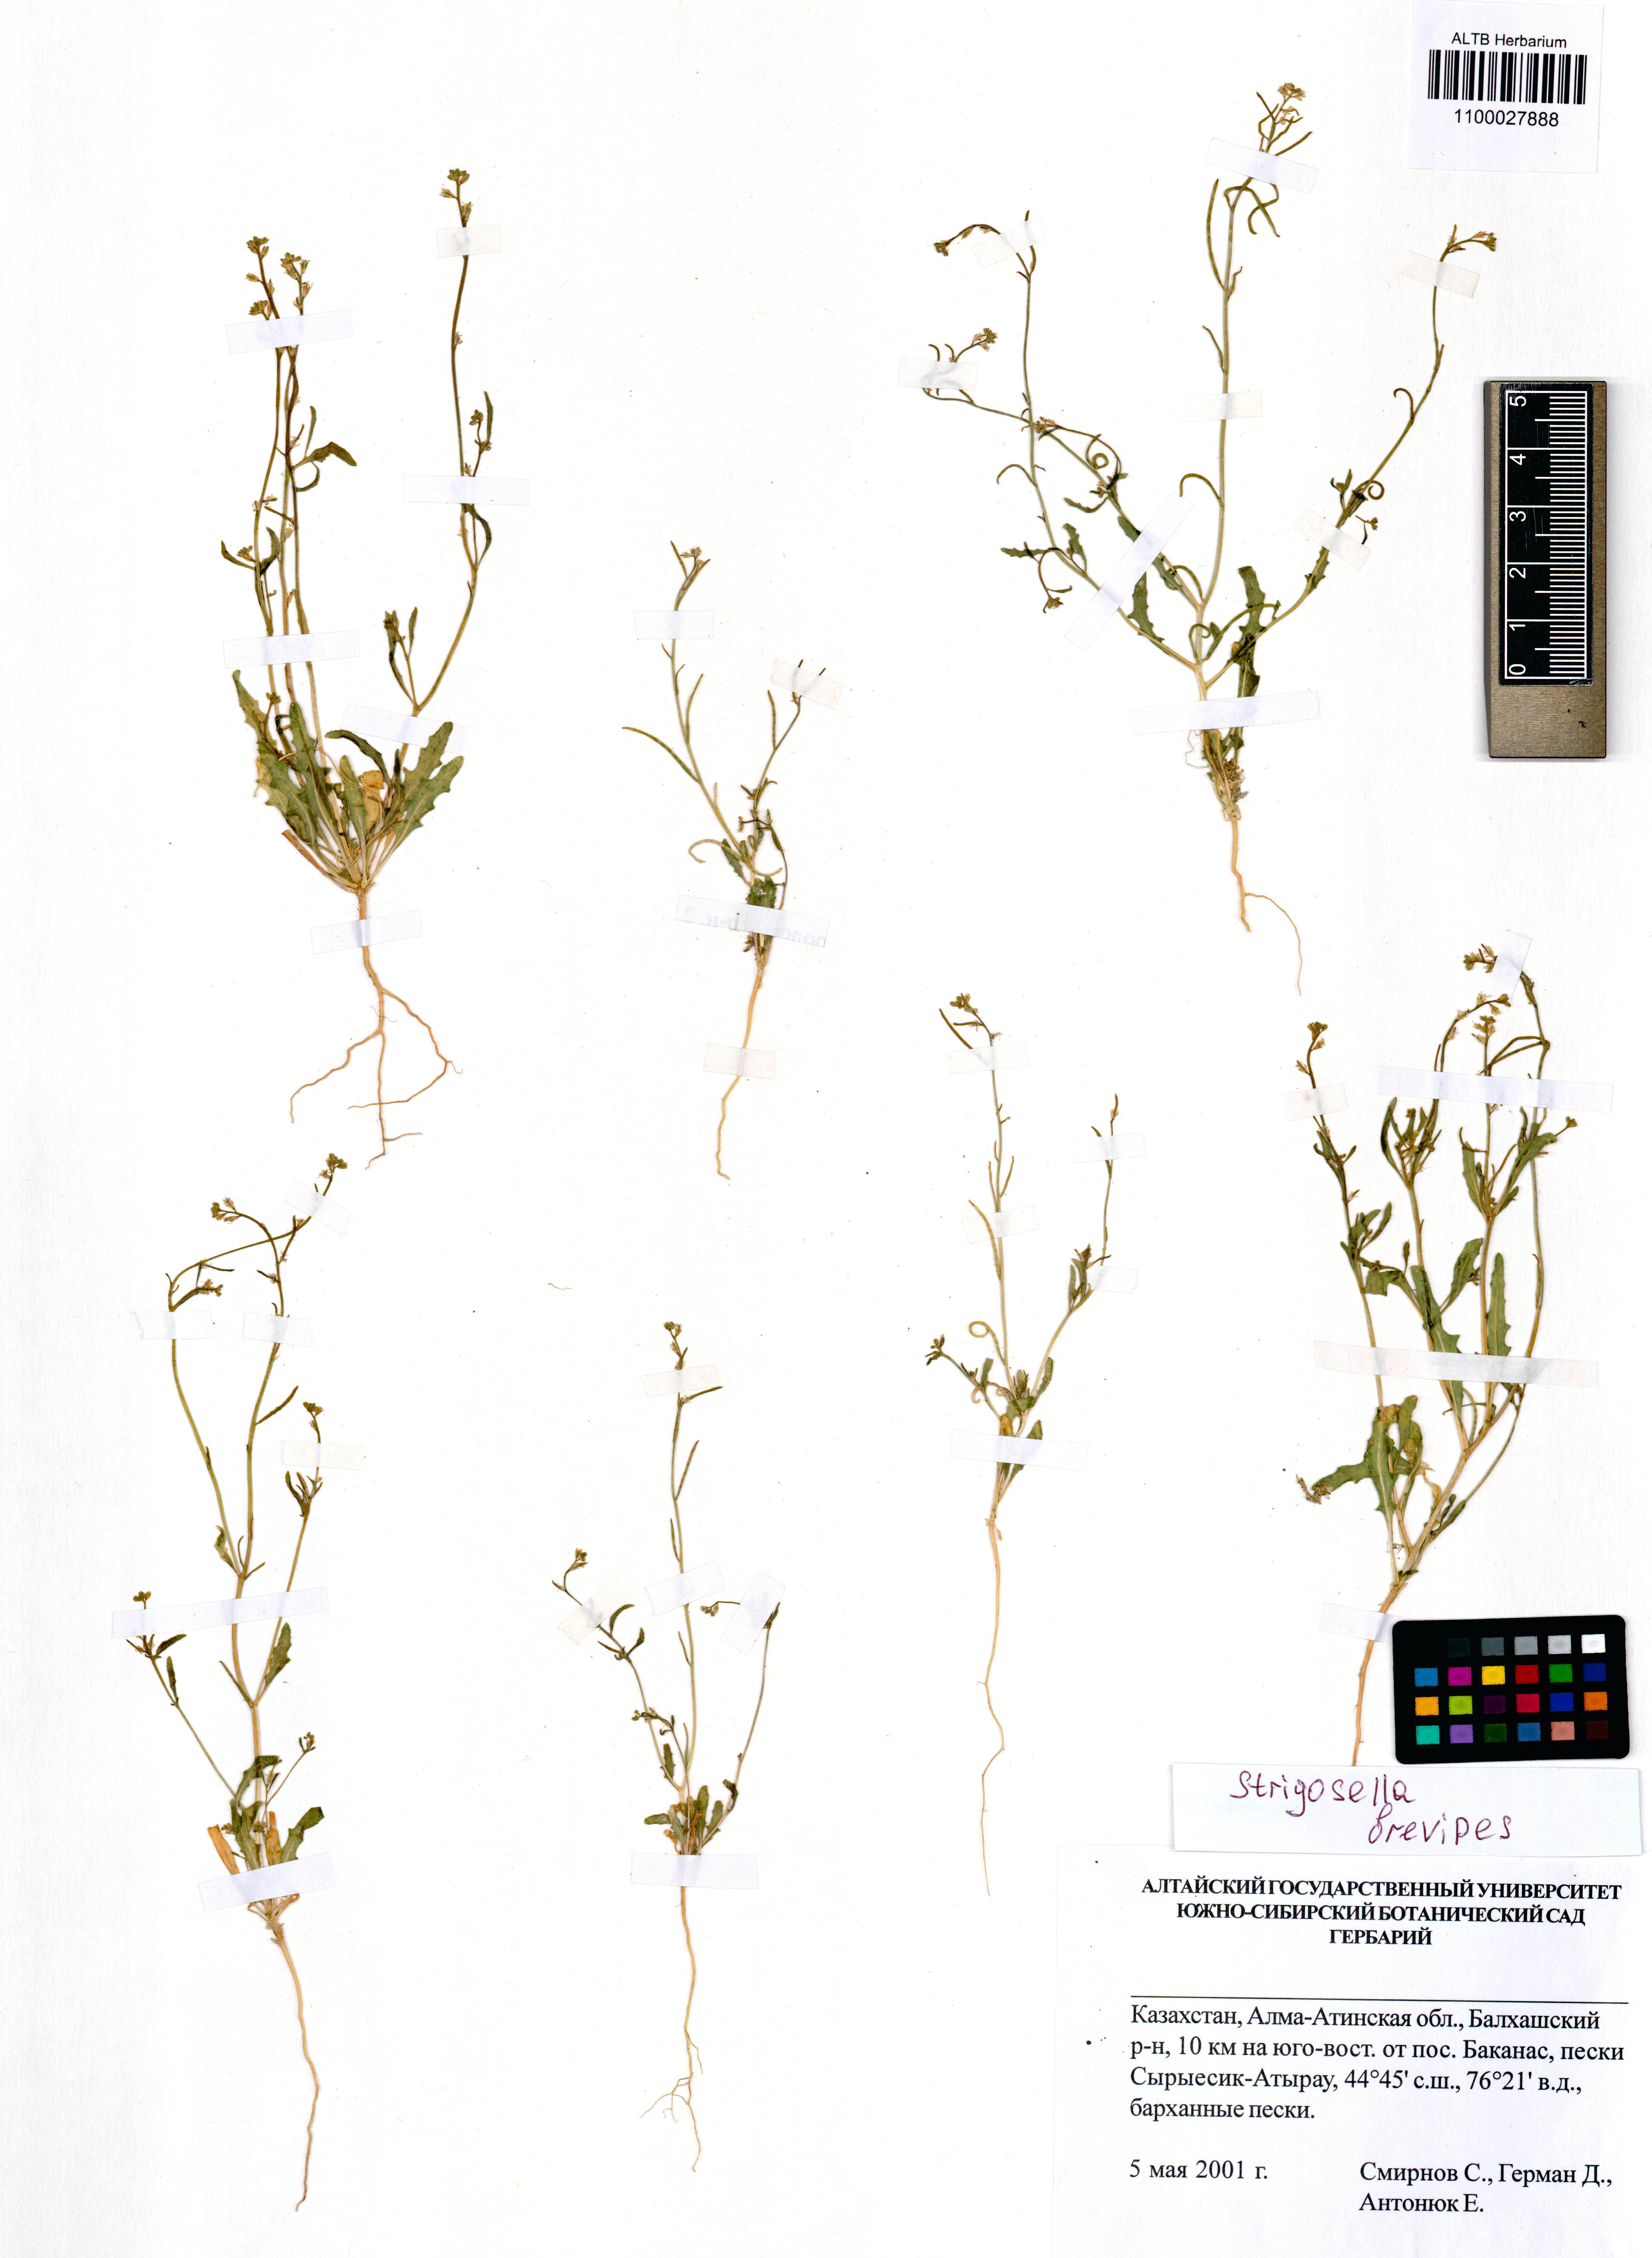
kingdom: Plantae
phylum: Tracheophyta
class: Magnoliopsida
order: Brassicales
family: Brassicaceae
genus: Strigosella
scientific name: Strigosella brevipes
